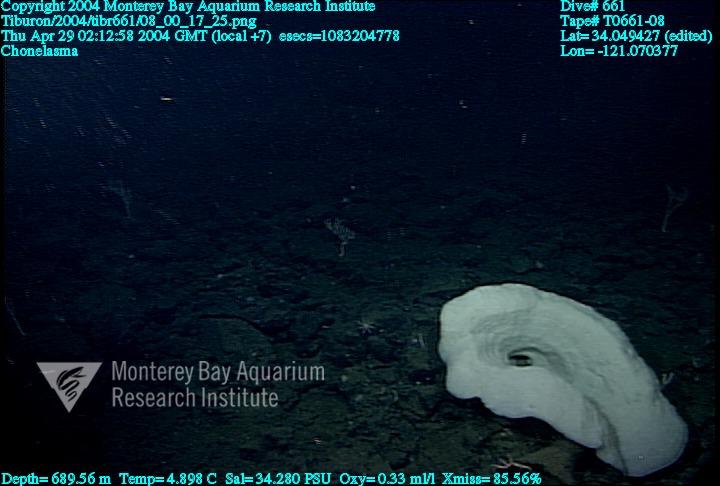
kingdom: Animalia
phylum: Porifera
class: Hexactinellida
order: Sceptrulophora
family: Euretidae
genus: Chonelasma
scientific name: Chonelasma
